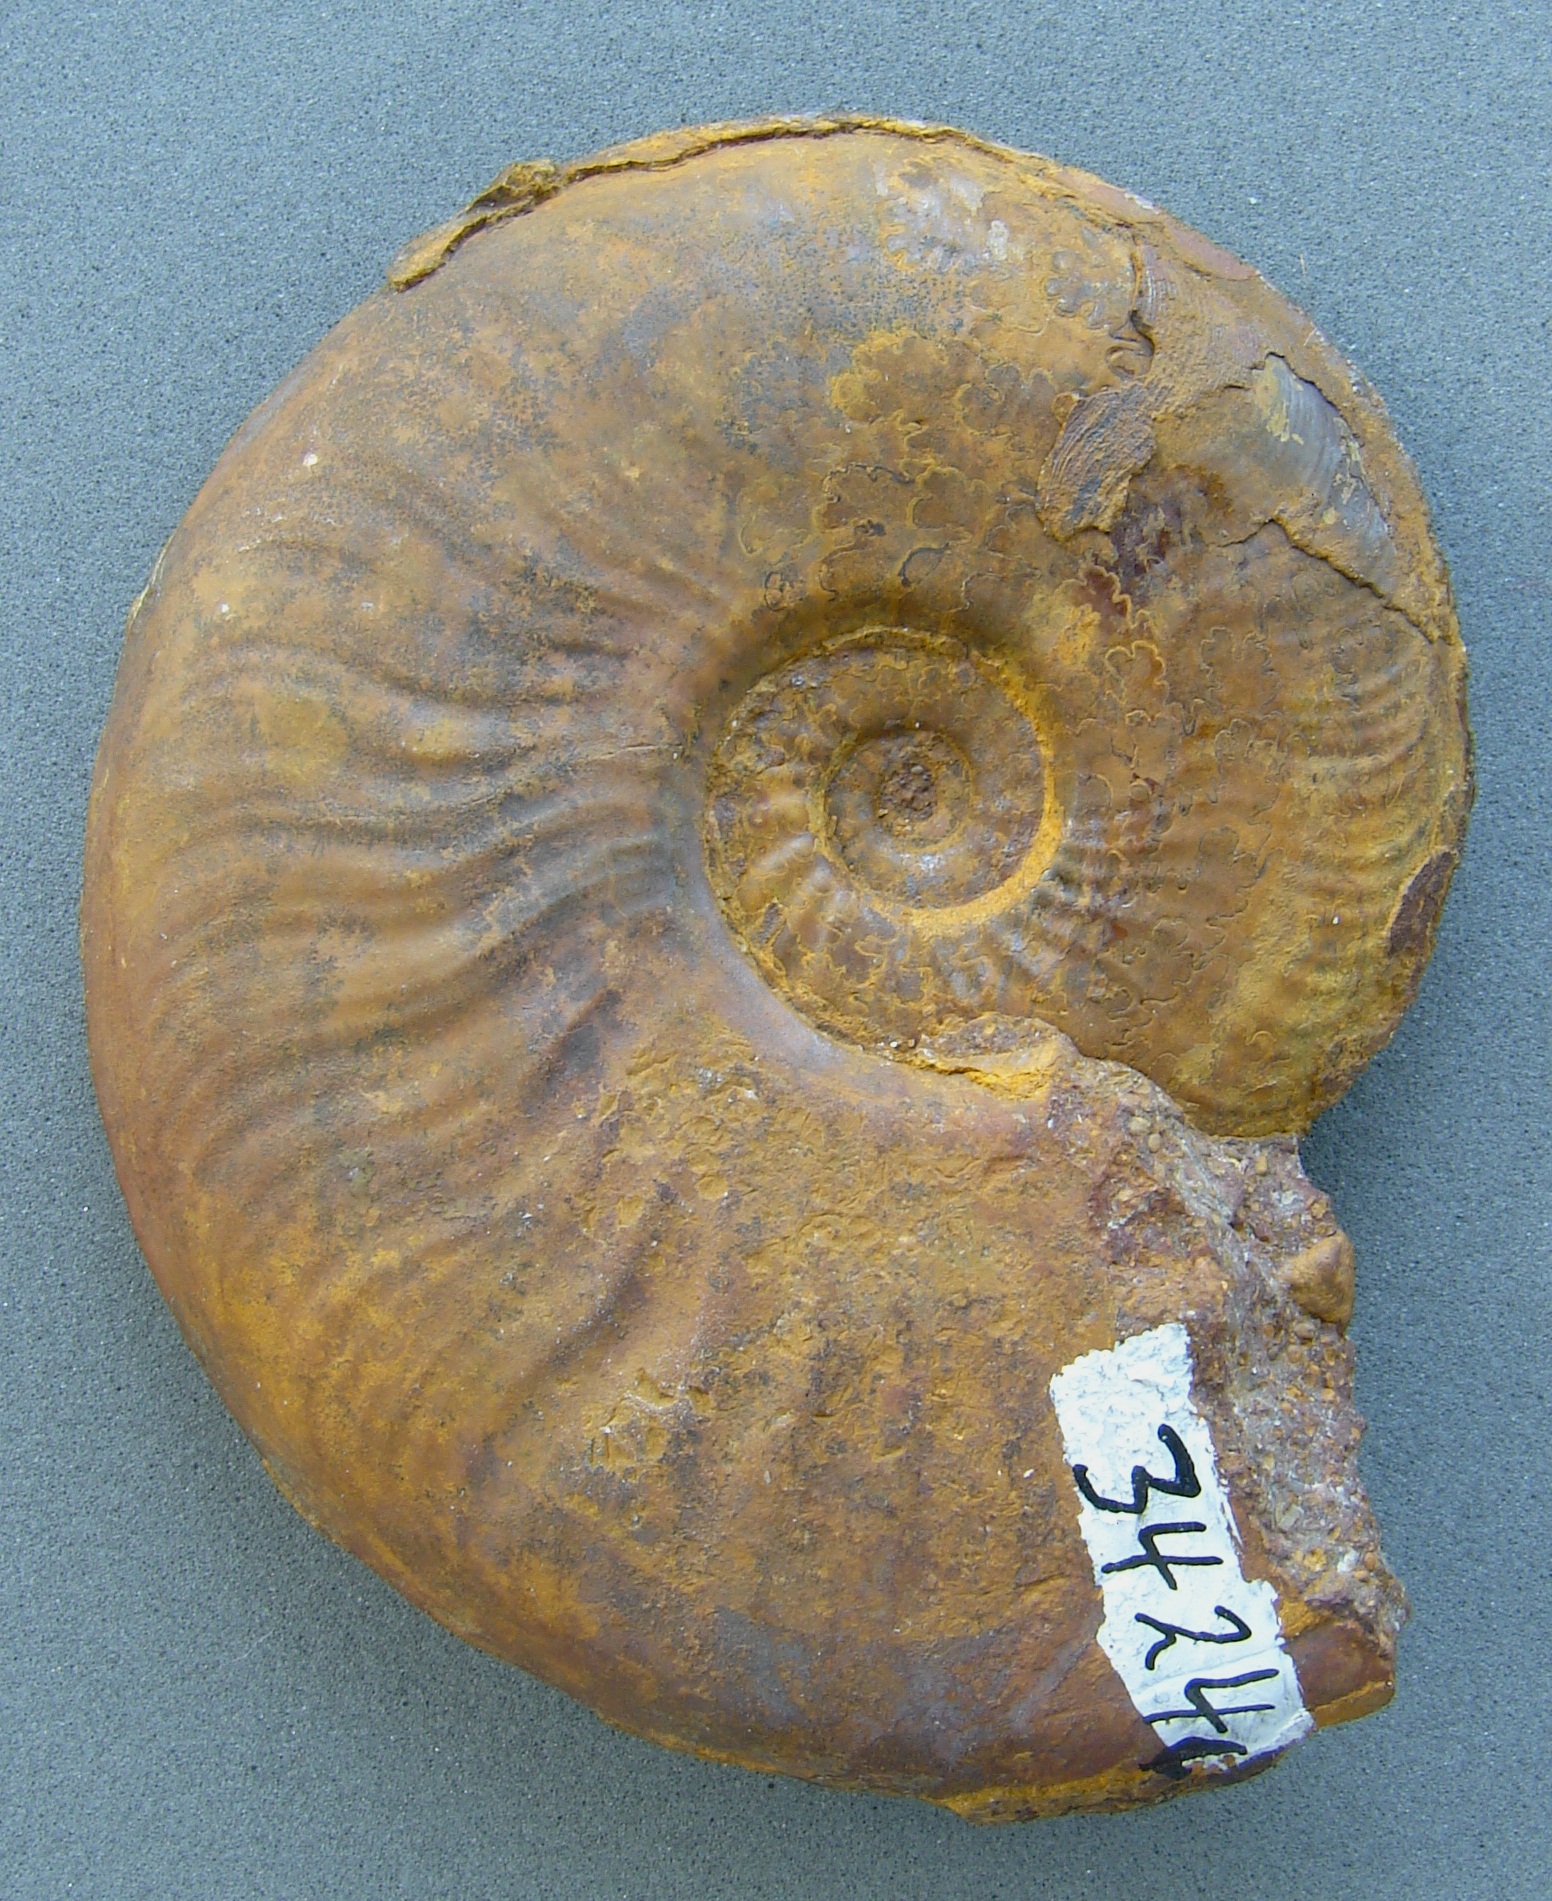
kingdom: Animalia
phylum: Mollusca
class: Cephalopoda
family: Hildoceratidae
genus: Pleydellia
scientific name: Pleydellia falcifer
